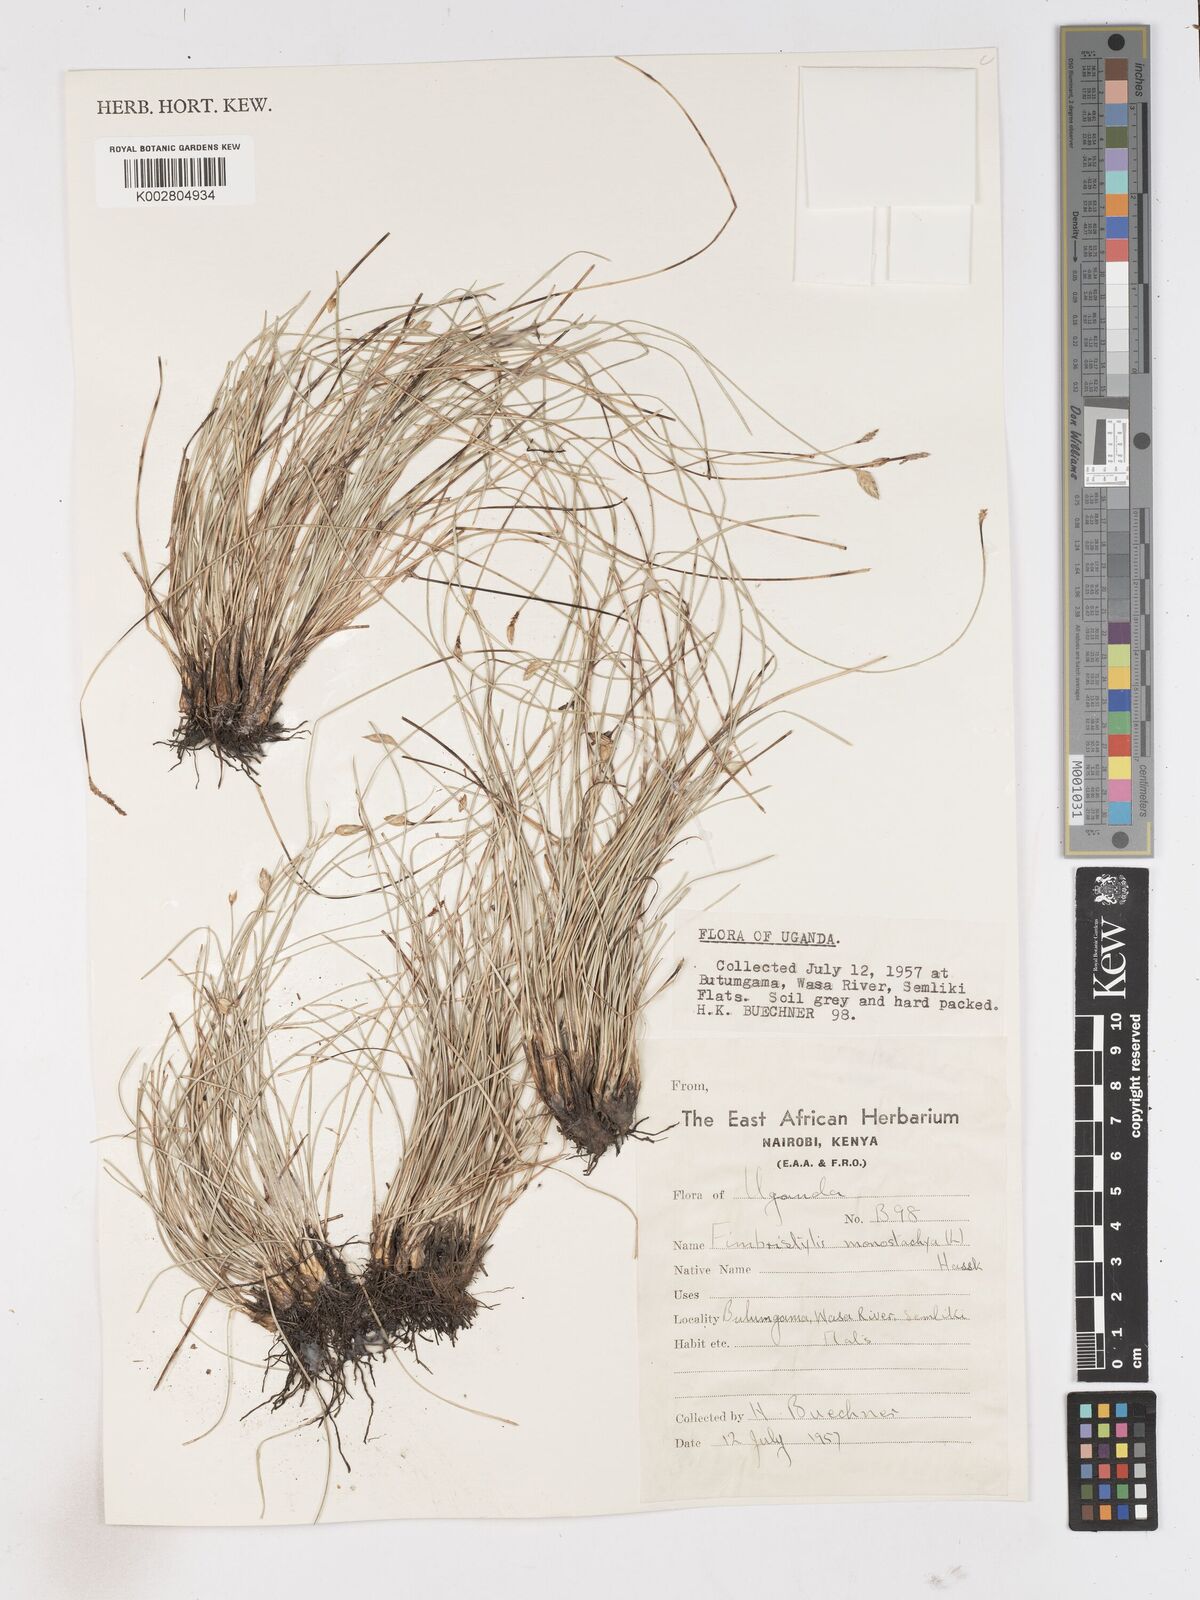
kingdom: Plantae
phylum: Tracheophyta
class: Liliopsida
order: Poales
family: Cyperaceae
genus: Abildgaardia
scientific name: Abildgaardia ovata
